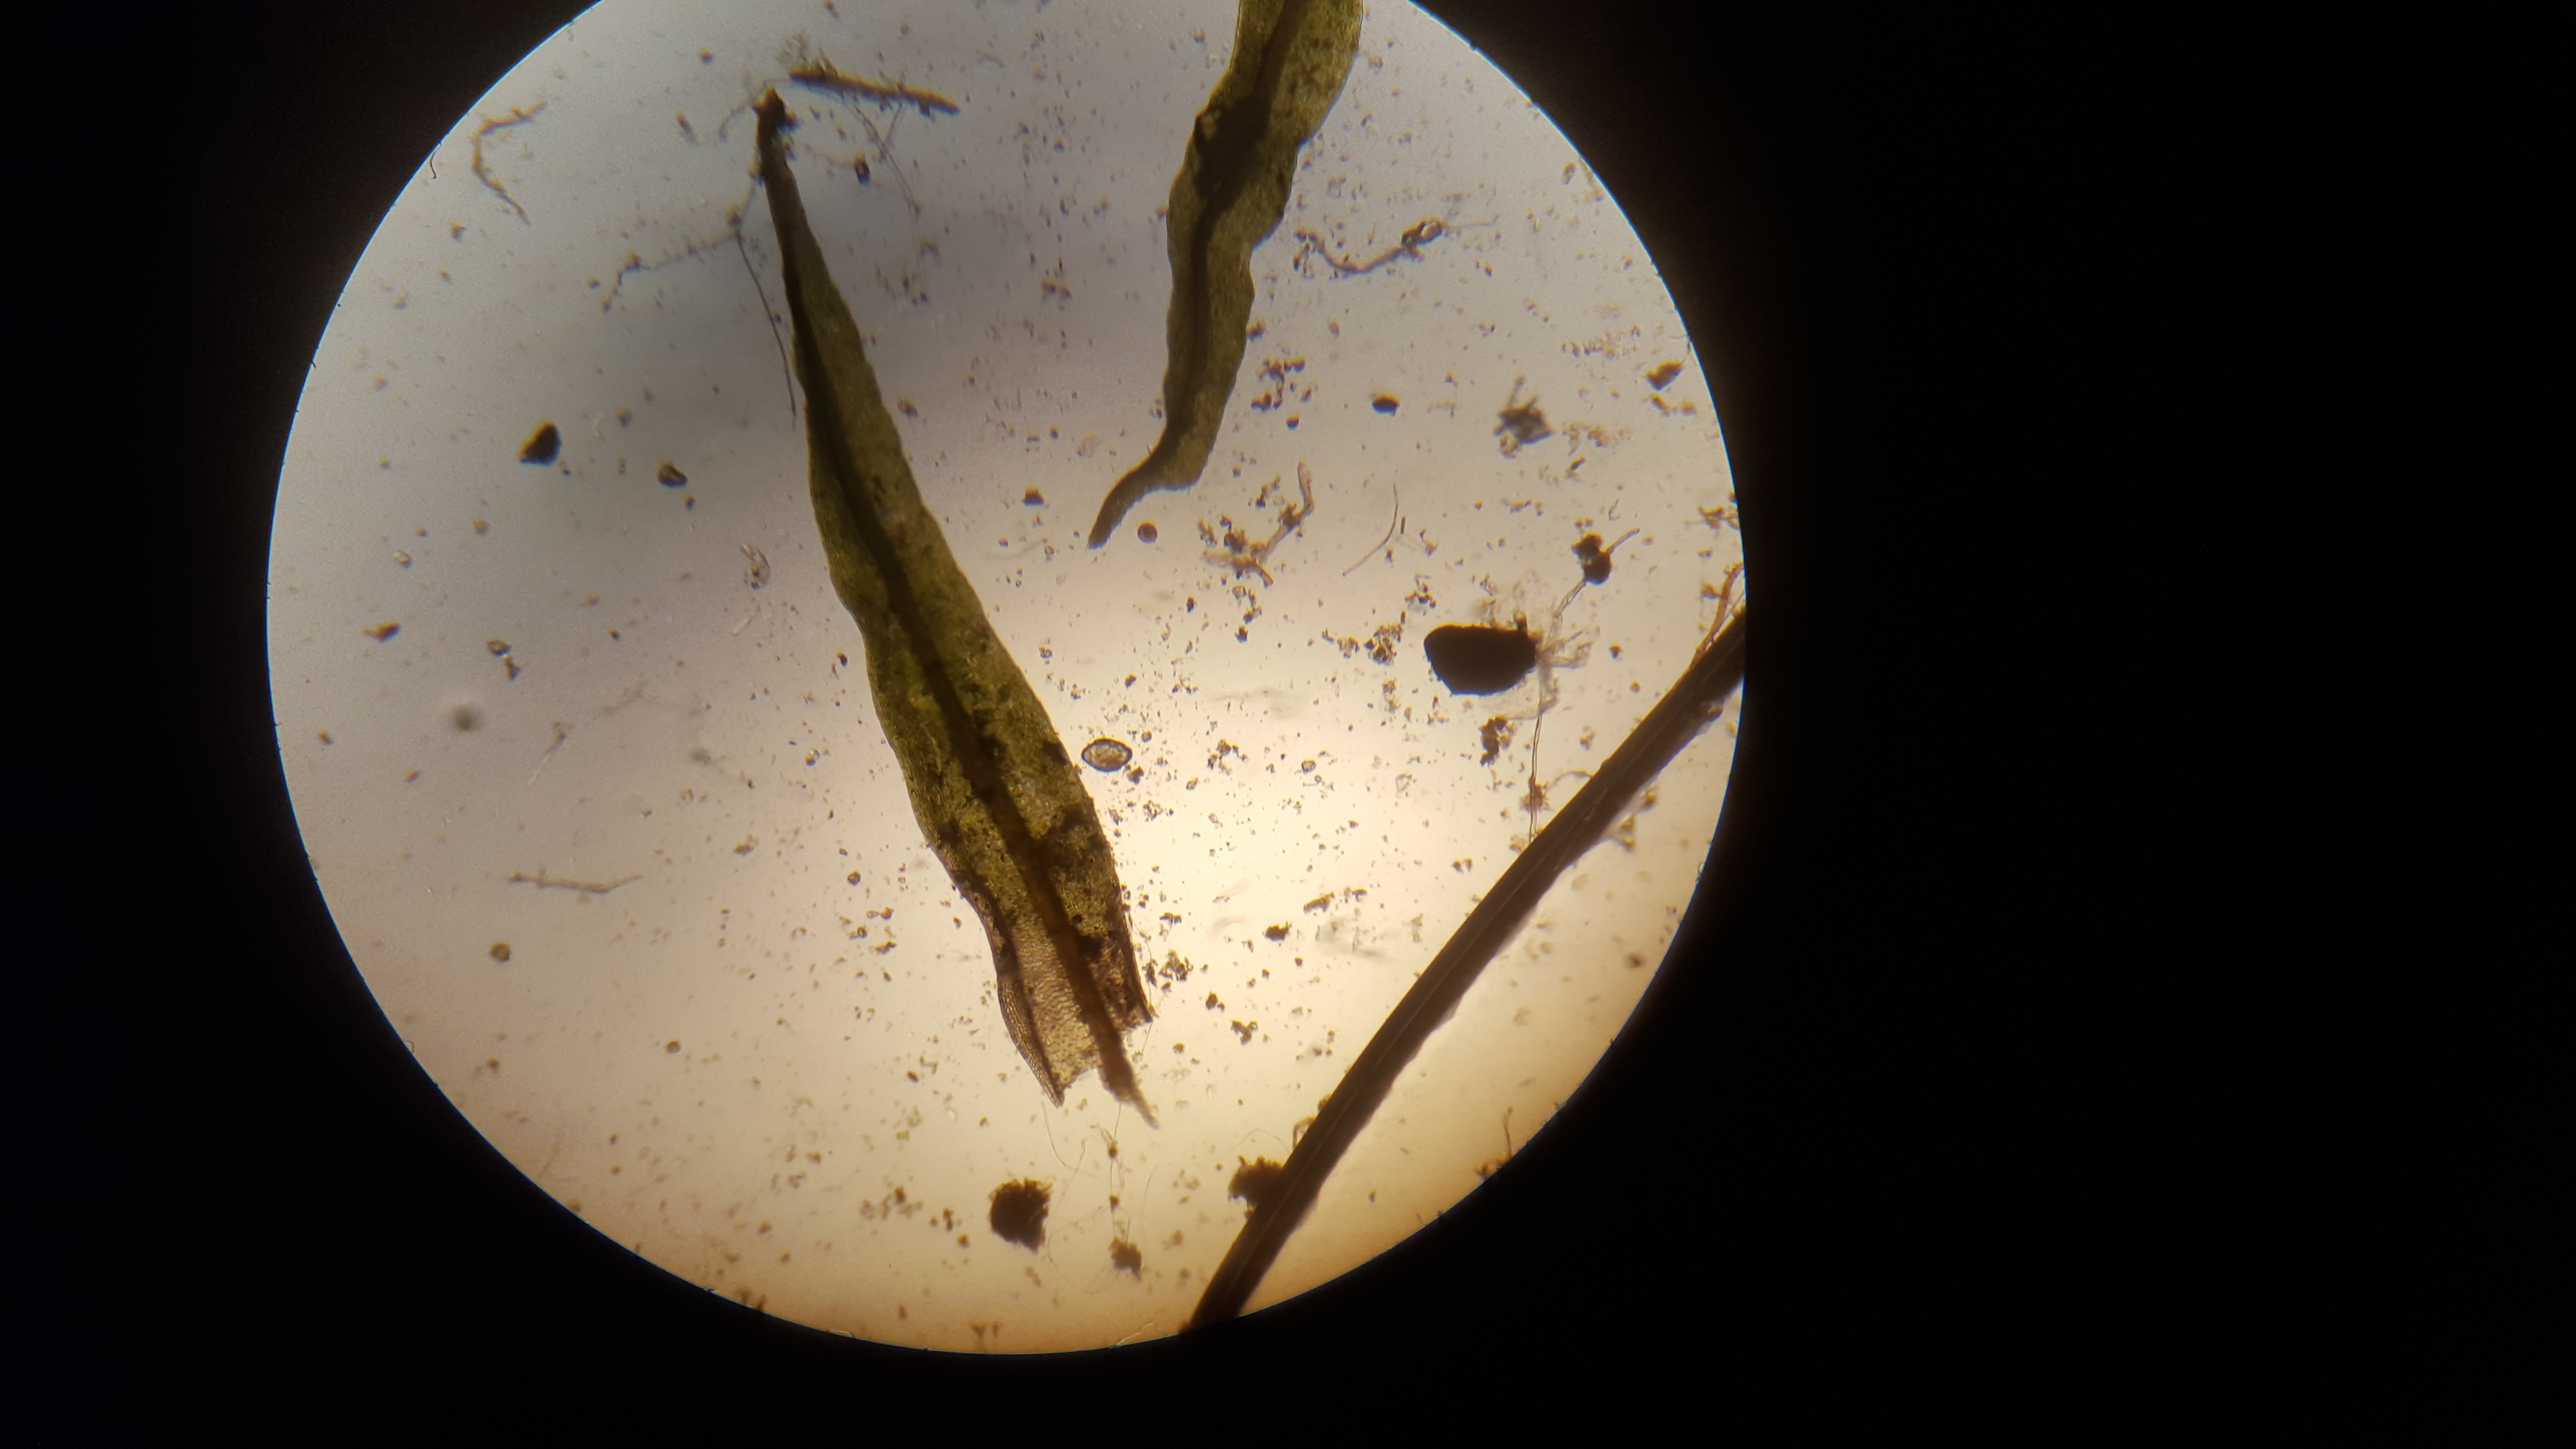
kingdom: Plantae
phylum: Bryophyta
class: Bryopsida
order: Pottiales
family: Pottiaceae
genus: Husnotiella
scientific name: Husnotiella sinuosa
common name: Bølget kalktuemos
